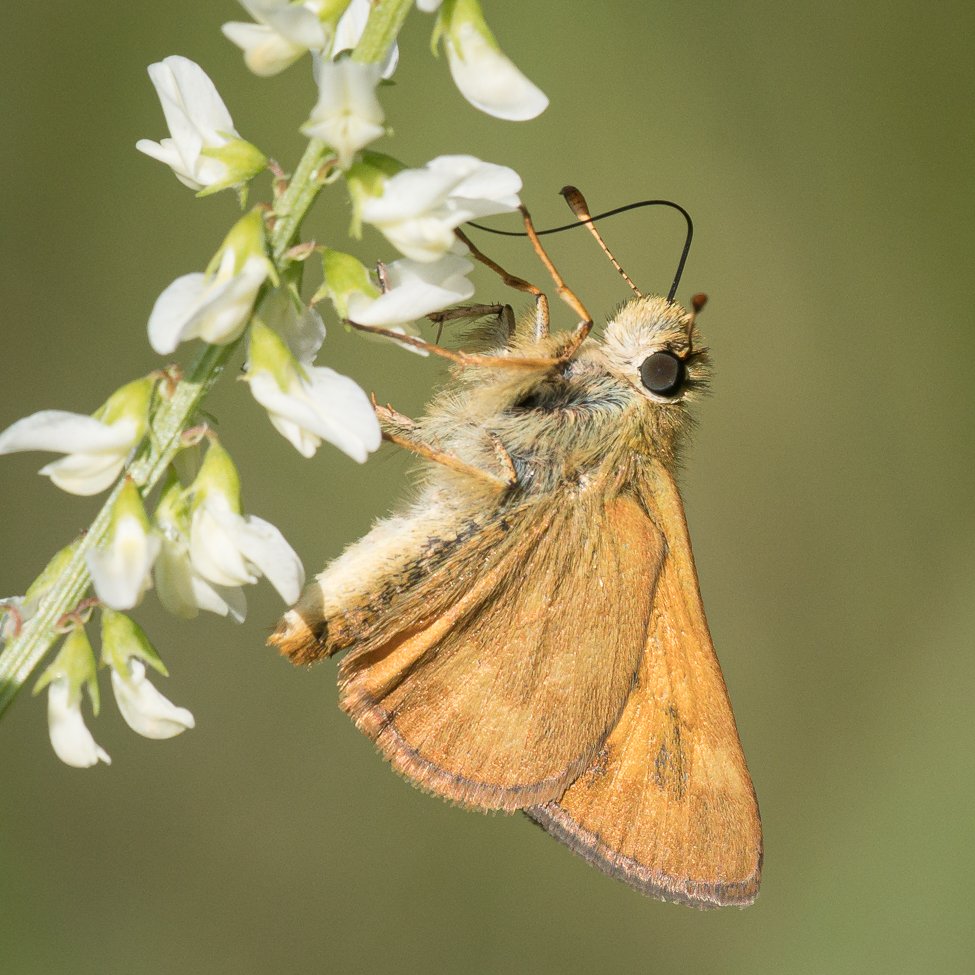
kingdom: Animalia
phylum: Arthropoda
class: Insecta
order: Lepidoptera
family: Hesperiidae
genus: Ochlodes
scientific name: Ochlodes sylvanoides
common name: Woodland Skipper
